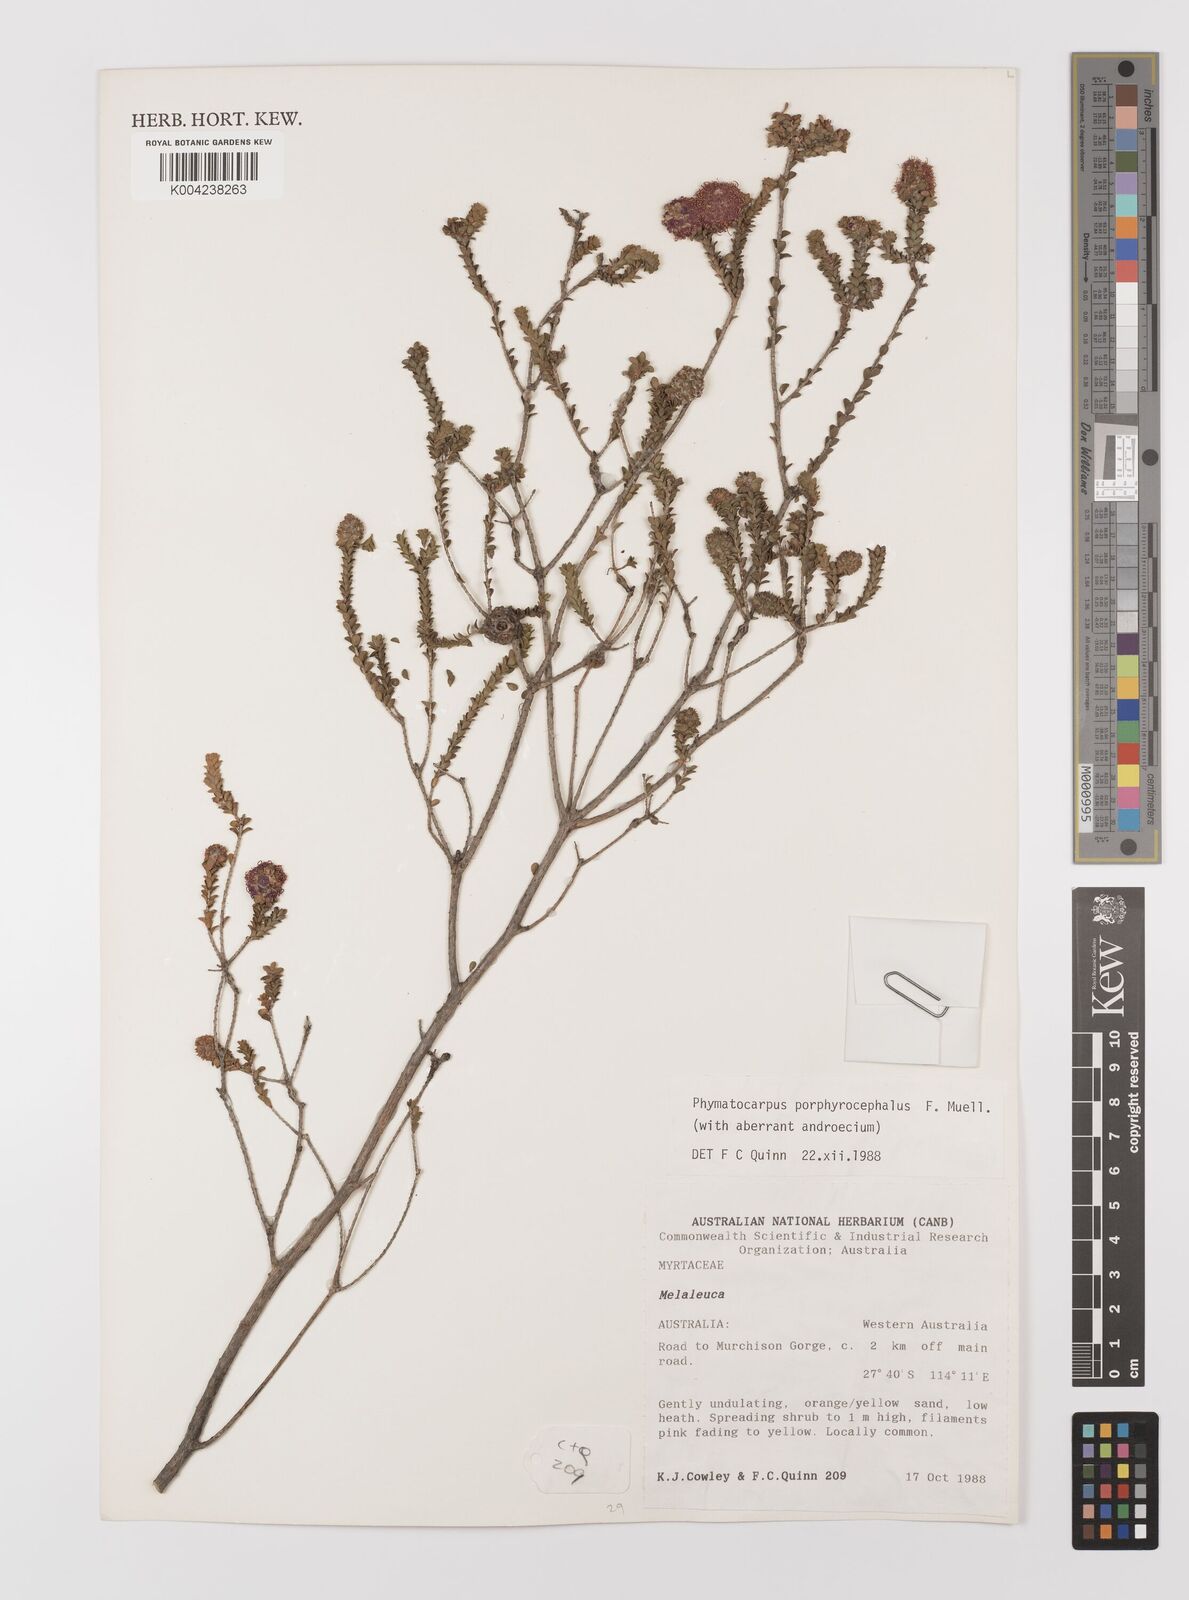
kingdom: Plantae
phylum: Tracheophyta
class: Magnoliopsida
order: Myrtales
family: Myrtaceae
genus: Melaleuca
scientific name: Melaleuca porphyrocephala
